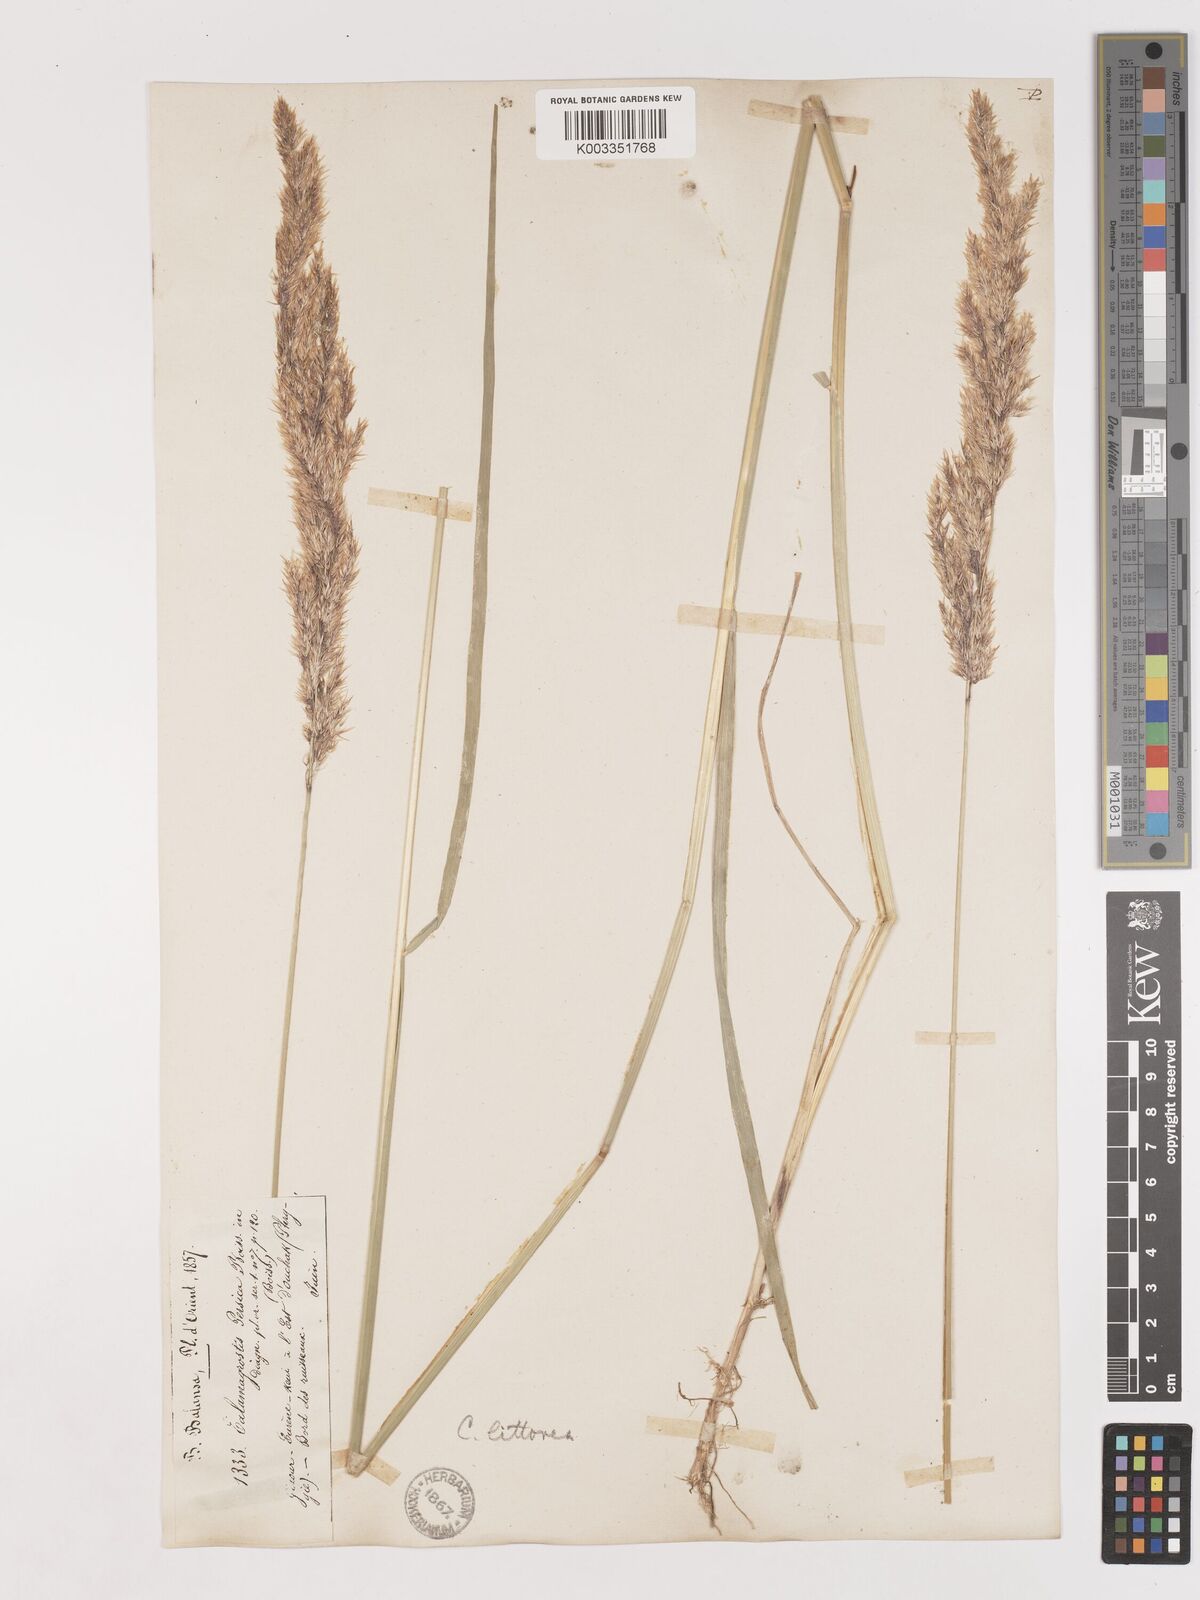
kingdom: Plantae
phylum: Tracheophyta
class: Liliopsida
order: Poales
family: Poaceae
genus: Calamagrostis
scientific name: Calamagrostis pseudophragmites
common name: Coastal small-reed
